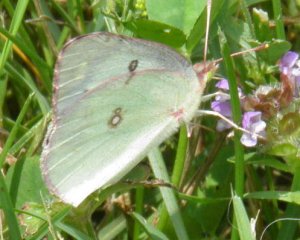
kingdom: Animalia
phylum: Arthropoda
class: Insecta
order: Lepidoptera
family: Pieridae
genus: Colias
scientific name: Colias philodice
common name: Clouded Sulphur
